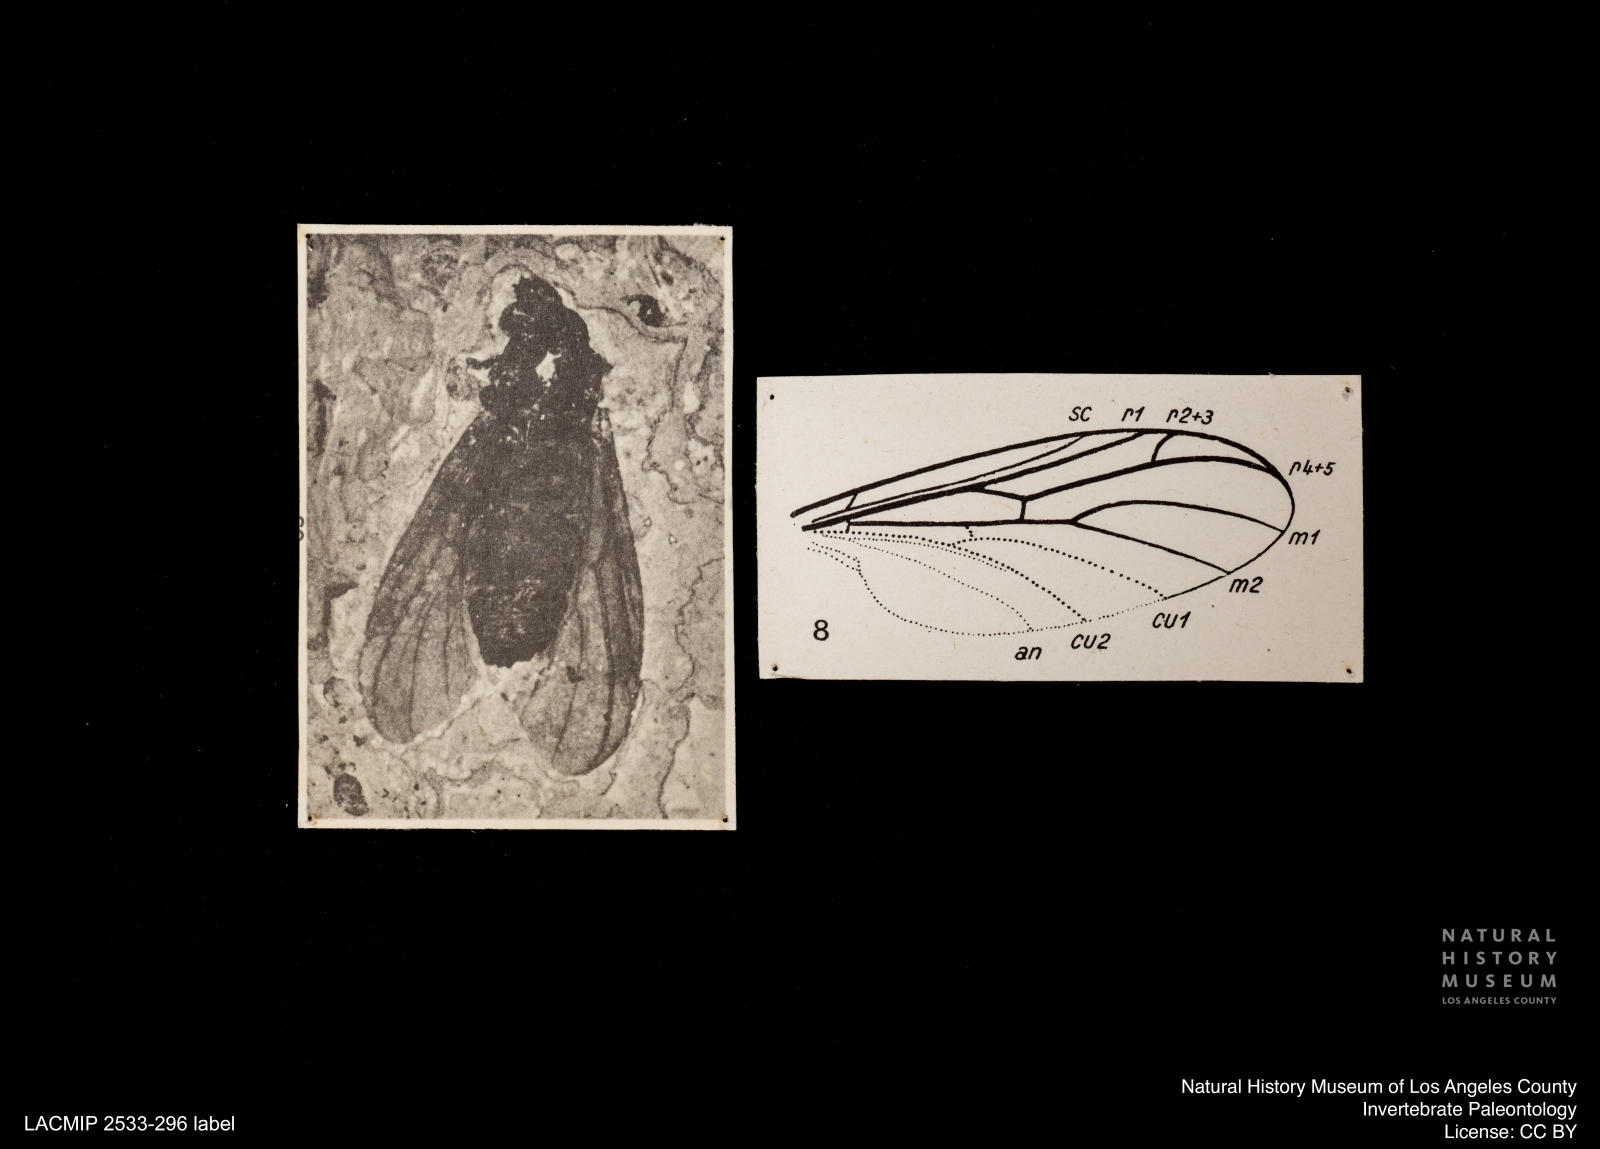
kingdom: Animalia
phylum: Arthropoda
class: Insecta
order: Diptera
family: Bibionidae
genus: Plecia
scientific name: Plecia pinguis
